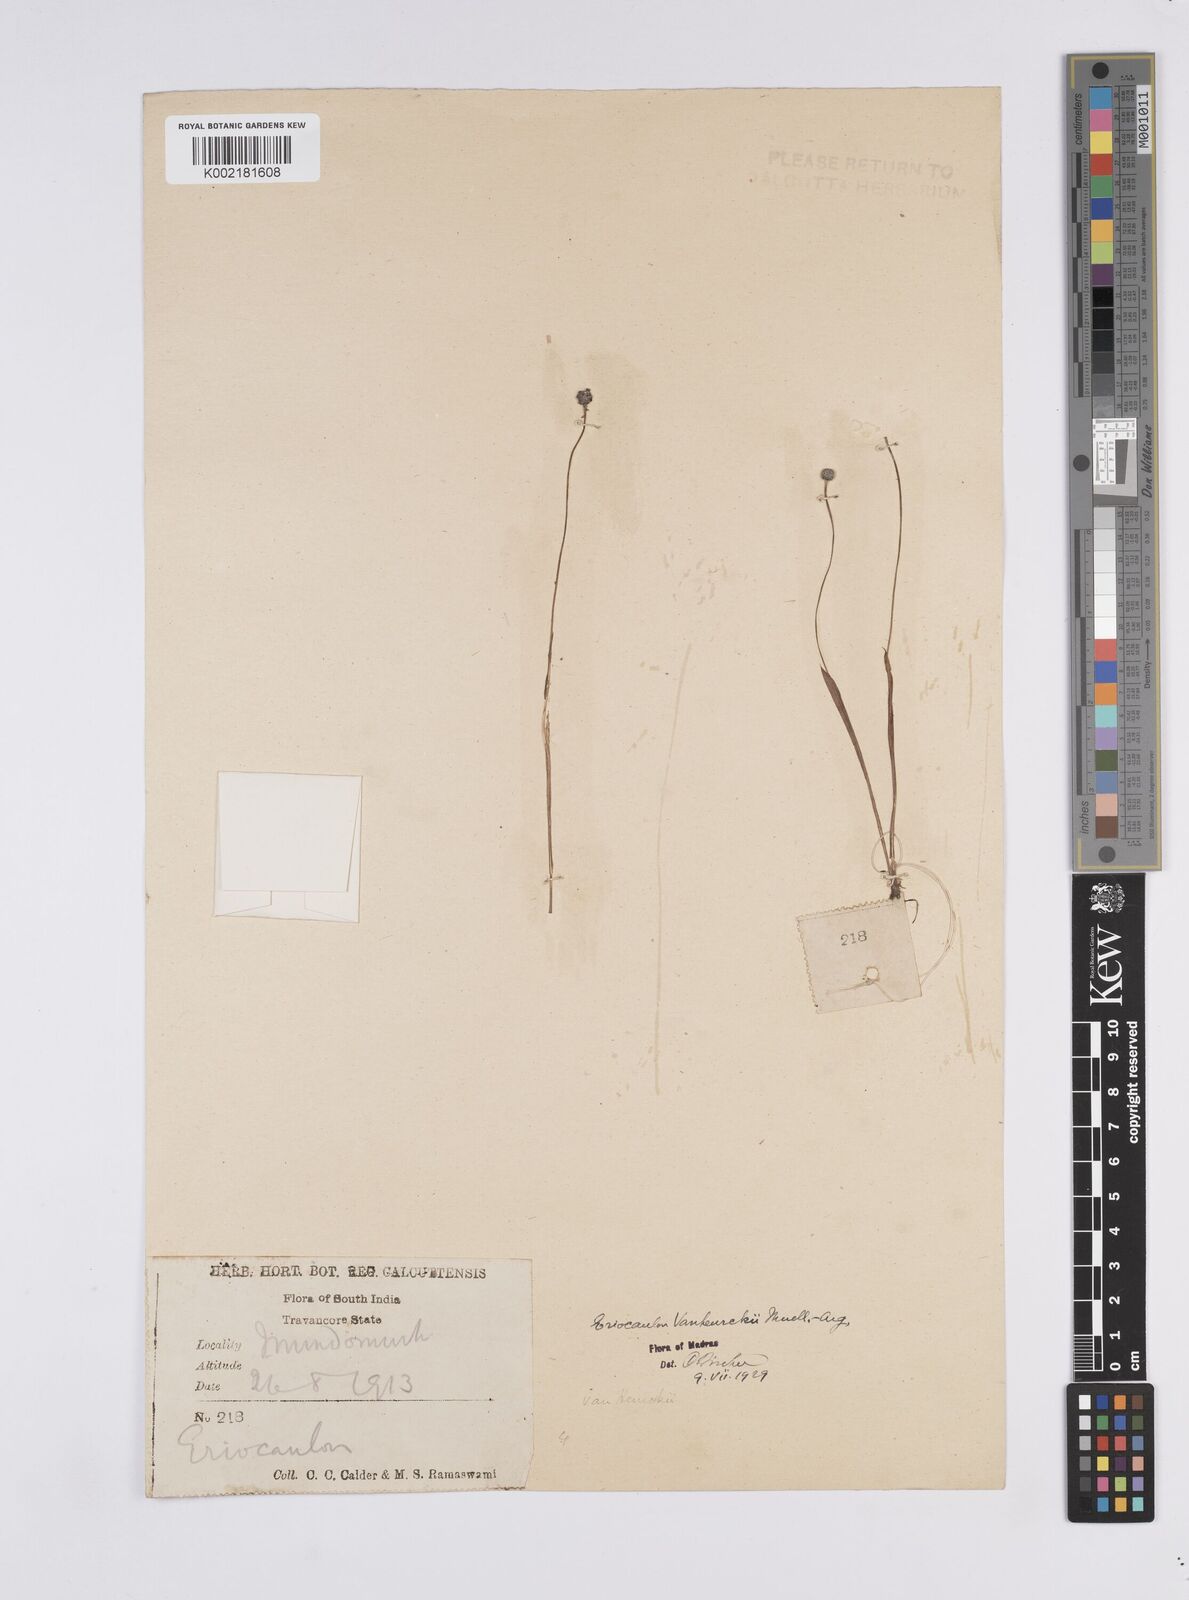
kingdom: Plantae
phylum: Tracheophyta
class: Liliopsida
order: Poales
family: Eriocaulaceae
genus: Eriocaulon
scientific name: Eriocaulon eurypeplon
